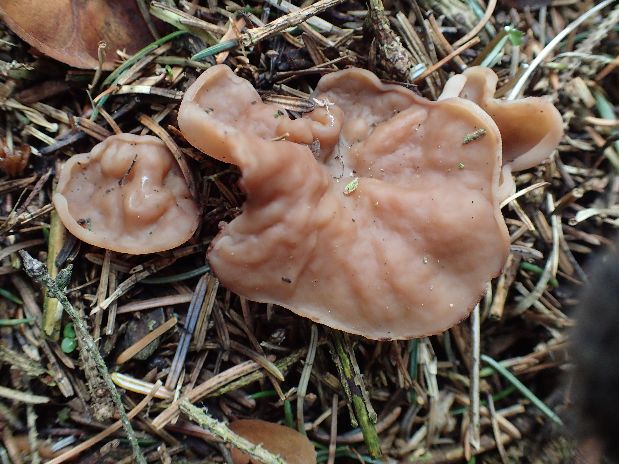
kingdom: Fungi
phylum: Ascomycota
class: Pezizomycetes
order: Pezizales
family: Discinaceae
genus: Discina
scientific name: Discina ancilis
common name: udbredt stenmorkel
